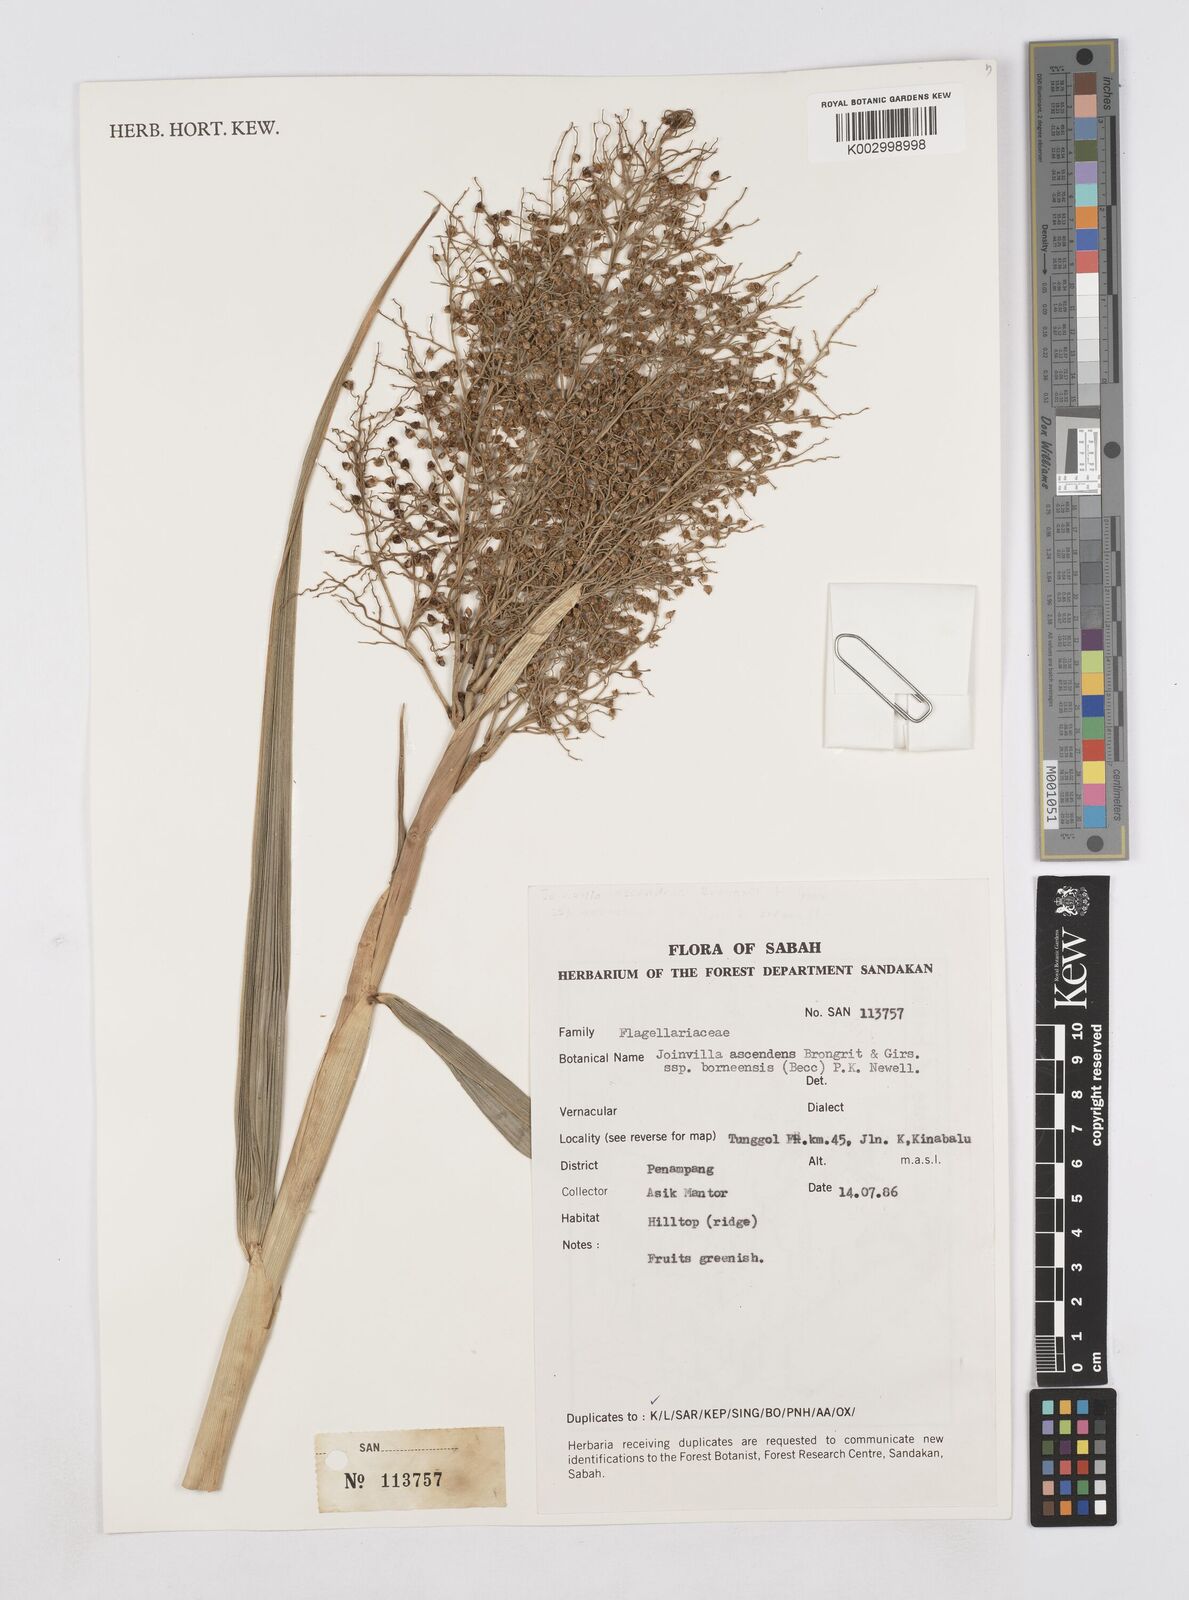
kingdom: Plantae
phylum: Tracheophyta
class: Liliopsida
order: Poales
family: Joinvilleaceae
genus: Joinvillea
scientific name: Joinvillea borneensis
